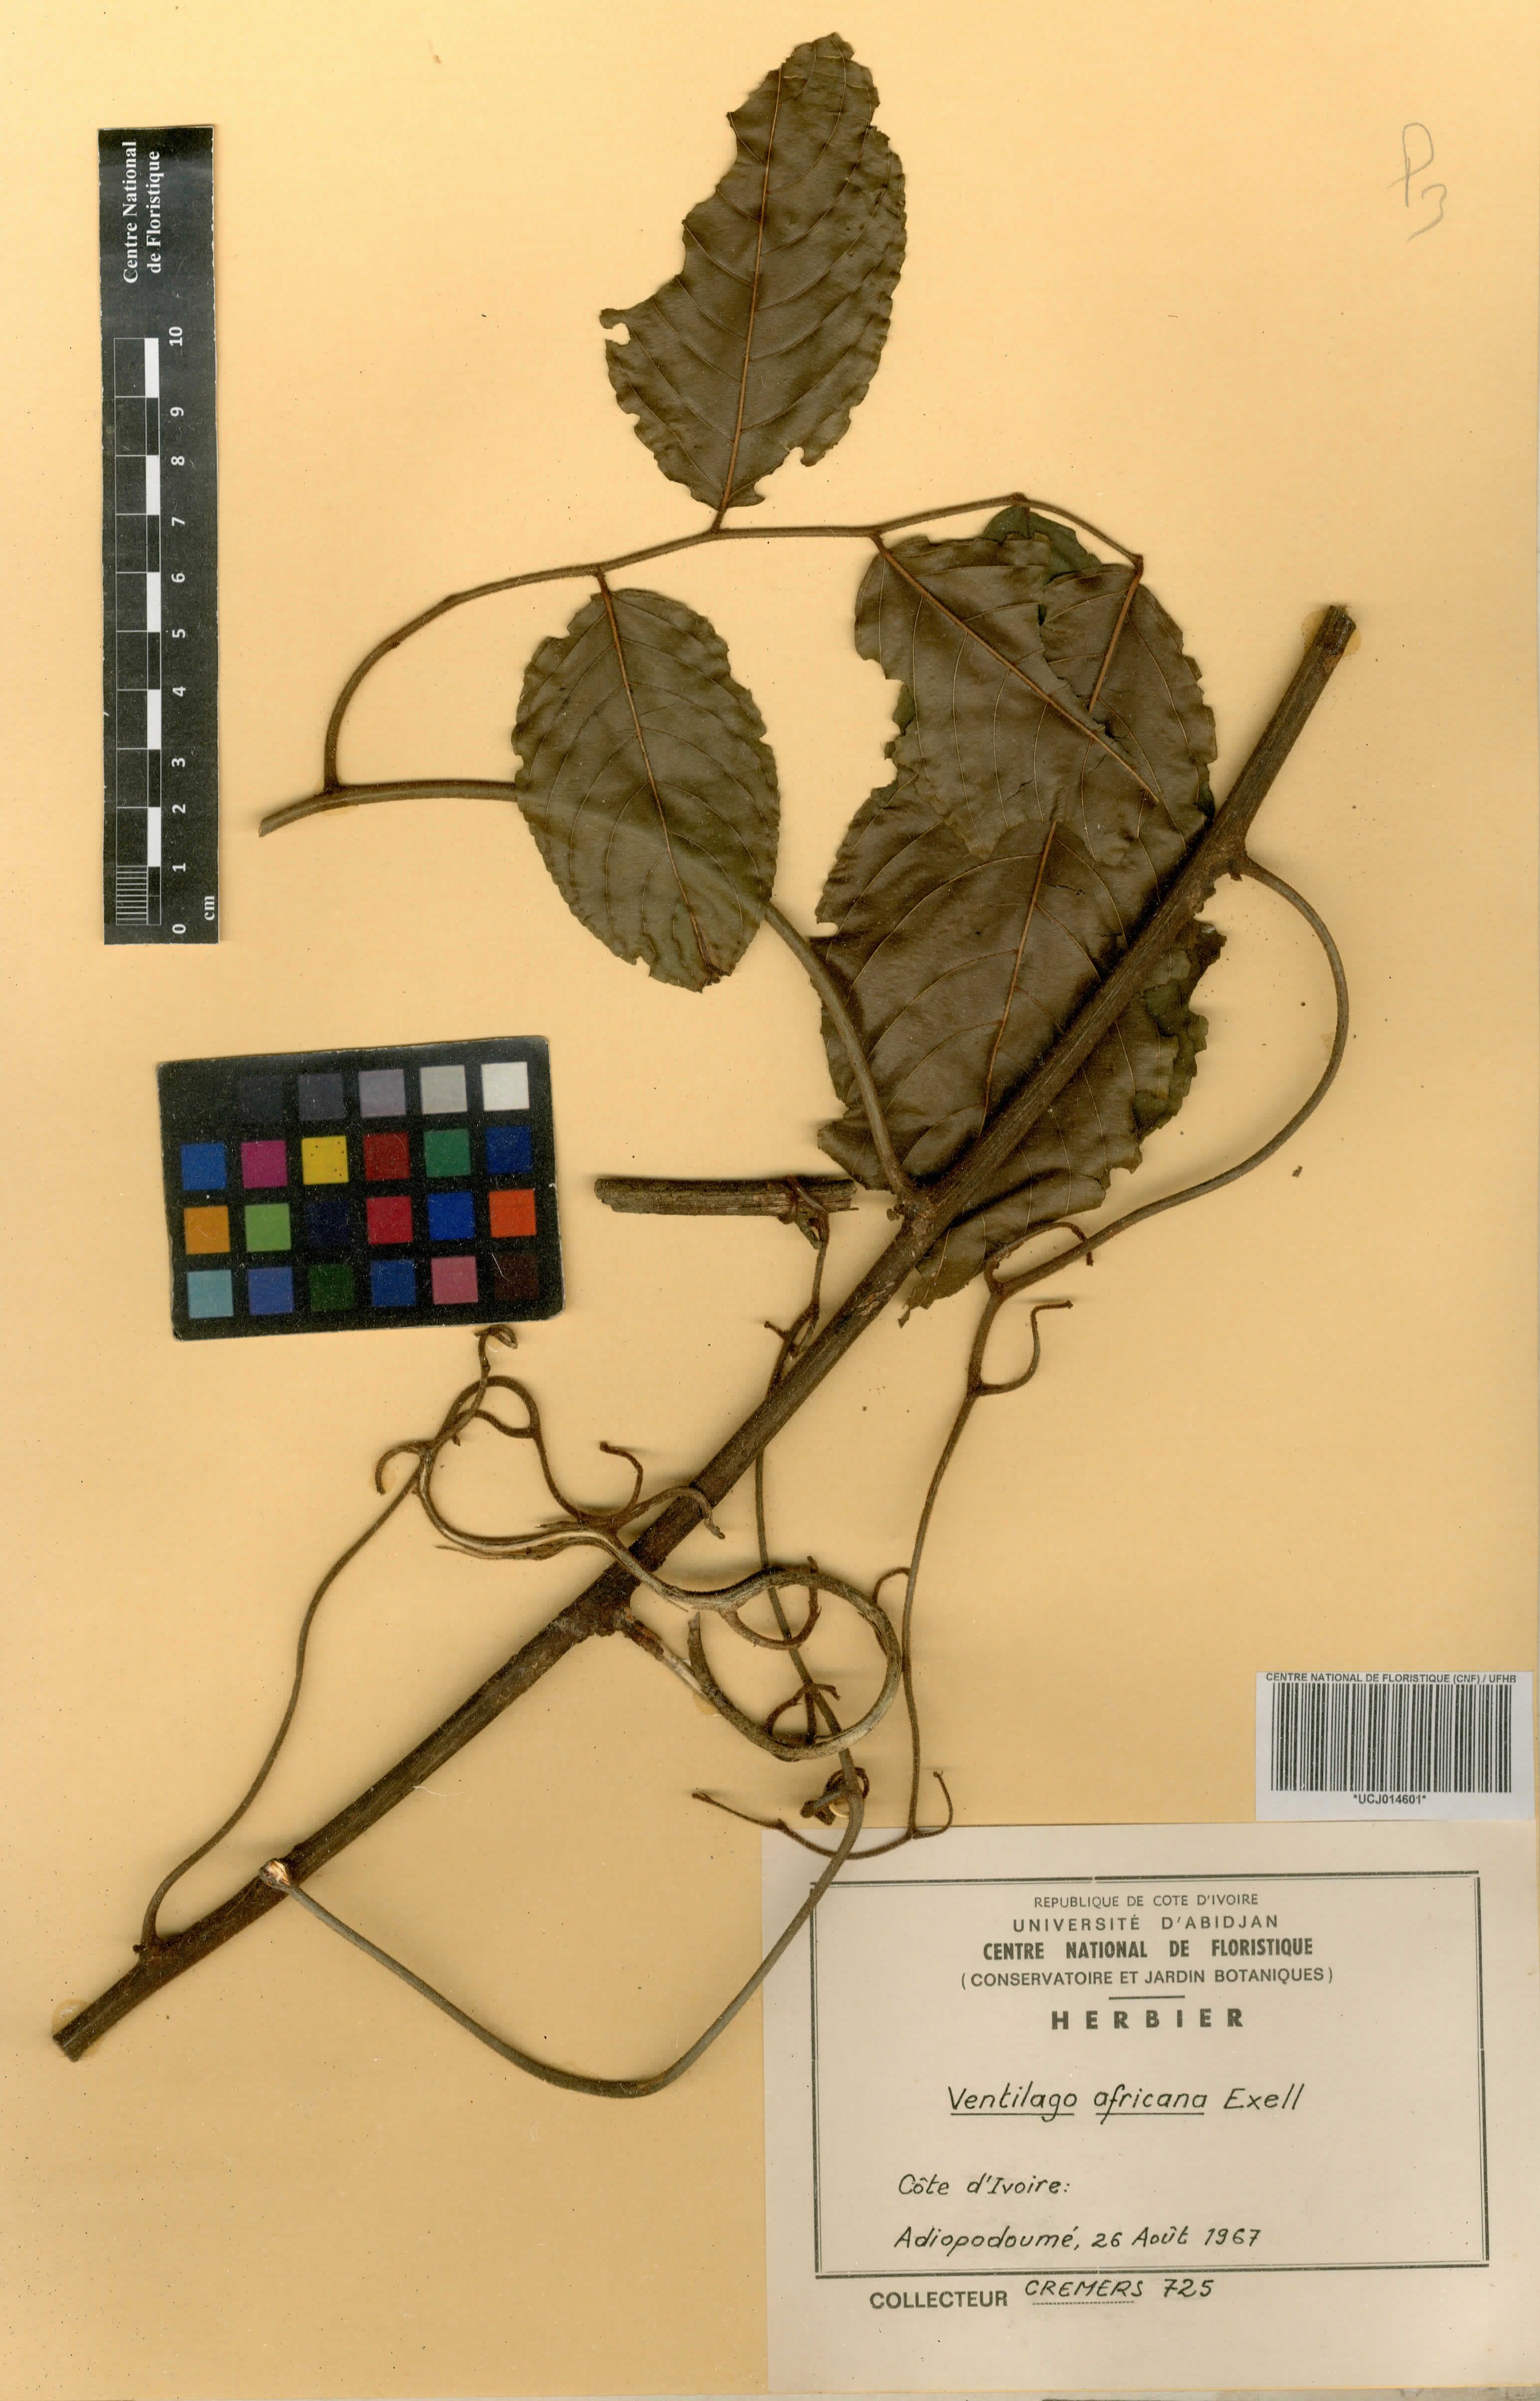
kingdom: Plantae
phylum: Tracheophyta
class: Magnoliopsida
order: Rosales
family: Rhamnaceae
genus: Ventilago
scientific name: Ventilago africana
